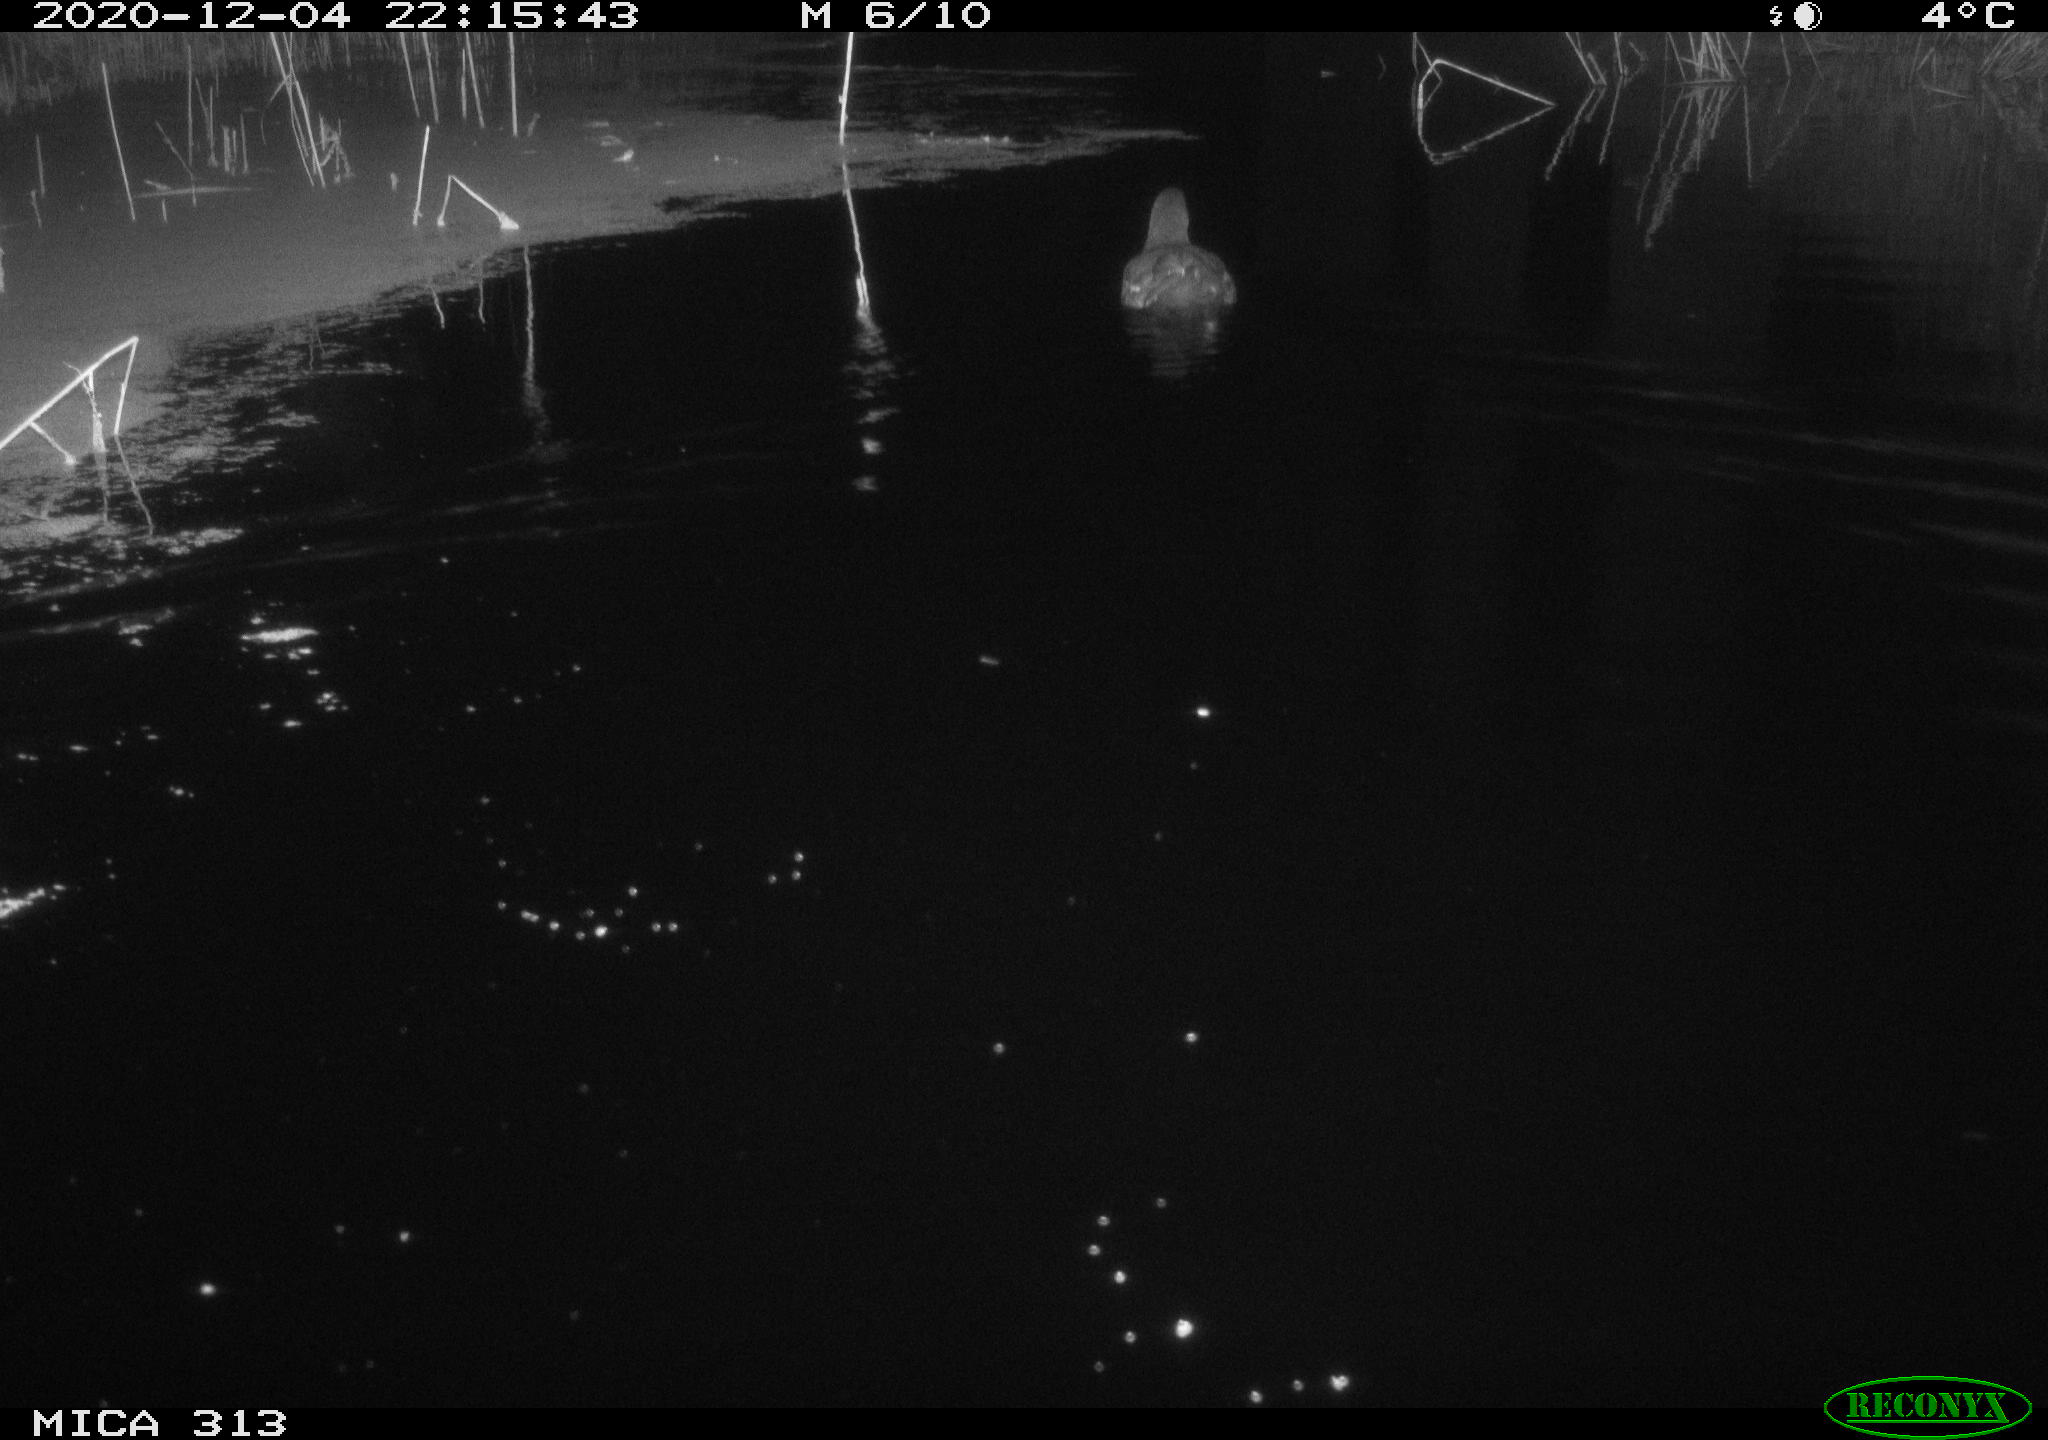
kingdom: Animalia
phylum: Chordata
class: Aves
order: Gruiformes
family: Rallidae
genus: Gallinula
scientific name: Gallinula chloropus
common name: Common moorhen
